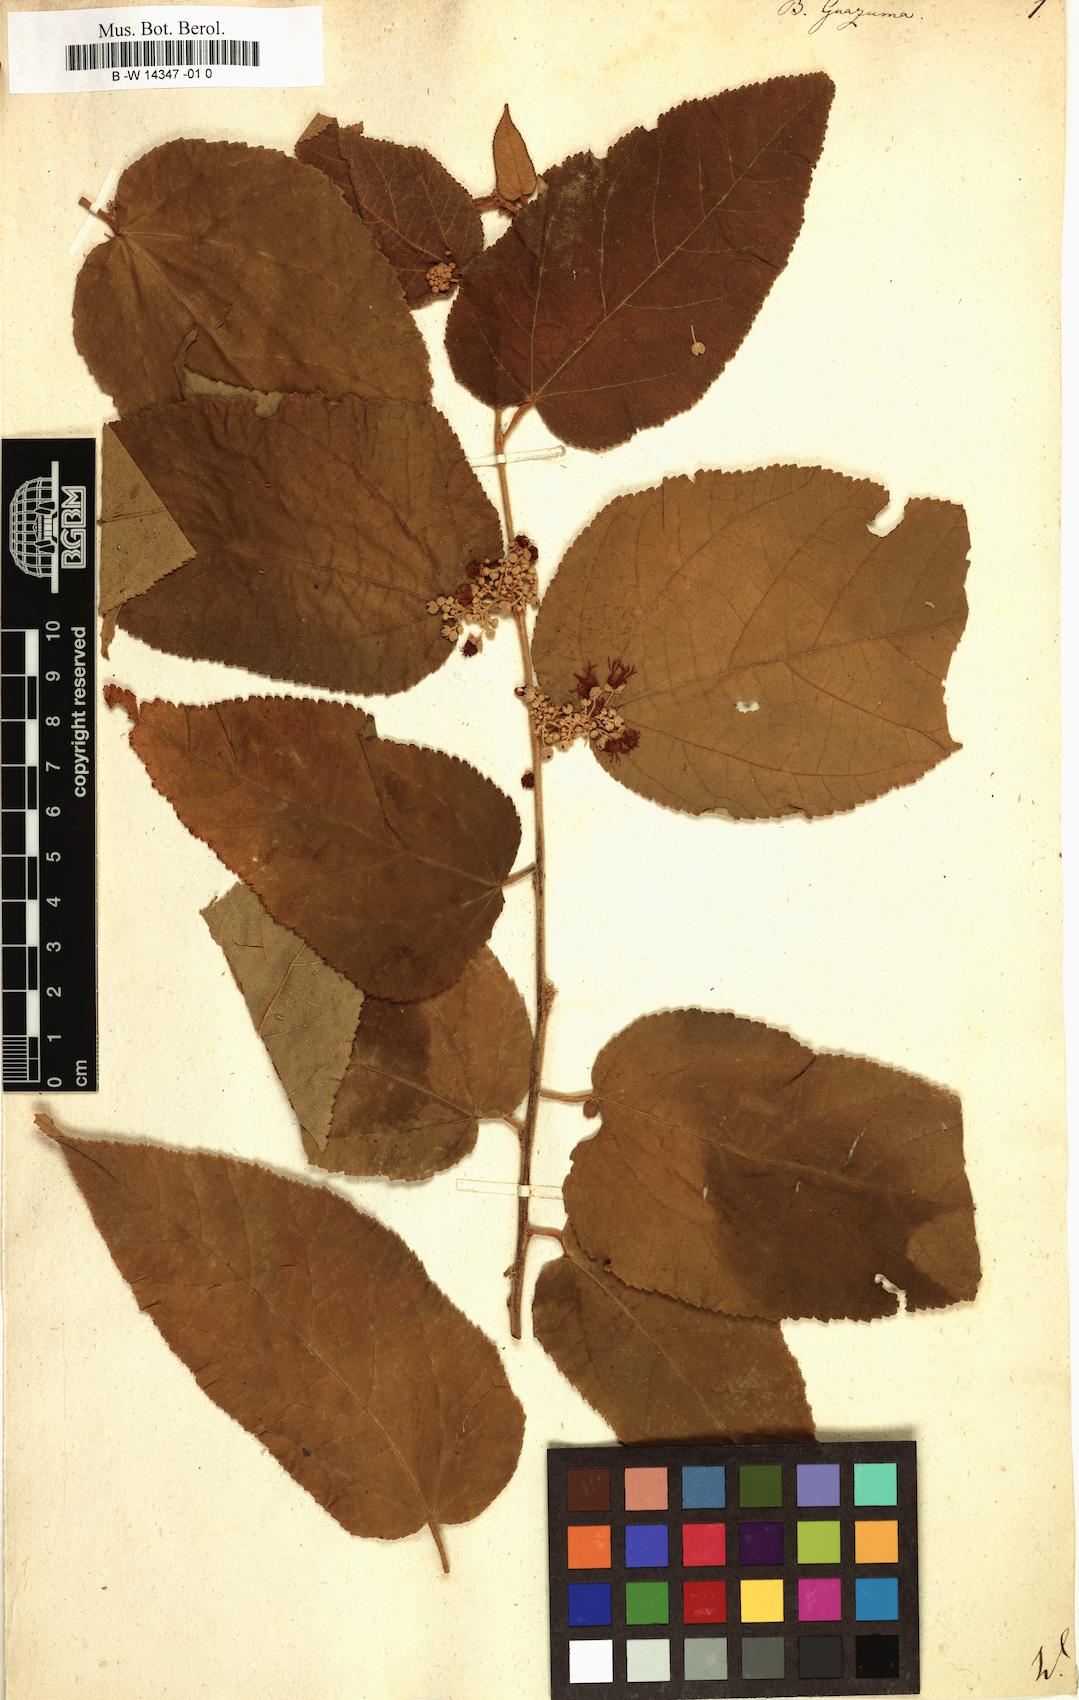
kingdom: Plantae
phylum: Tracheophyta
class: Magnoliopsida
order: Malvales
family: Malvaceae
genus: Guazuma
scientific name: Guazuma ulmifolia
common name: Bastard-cedar
